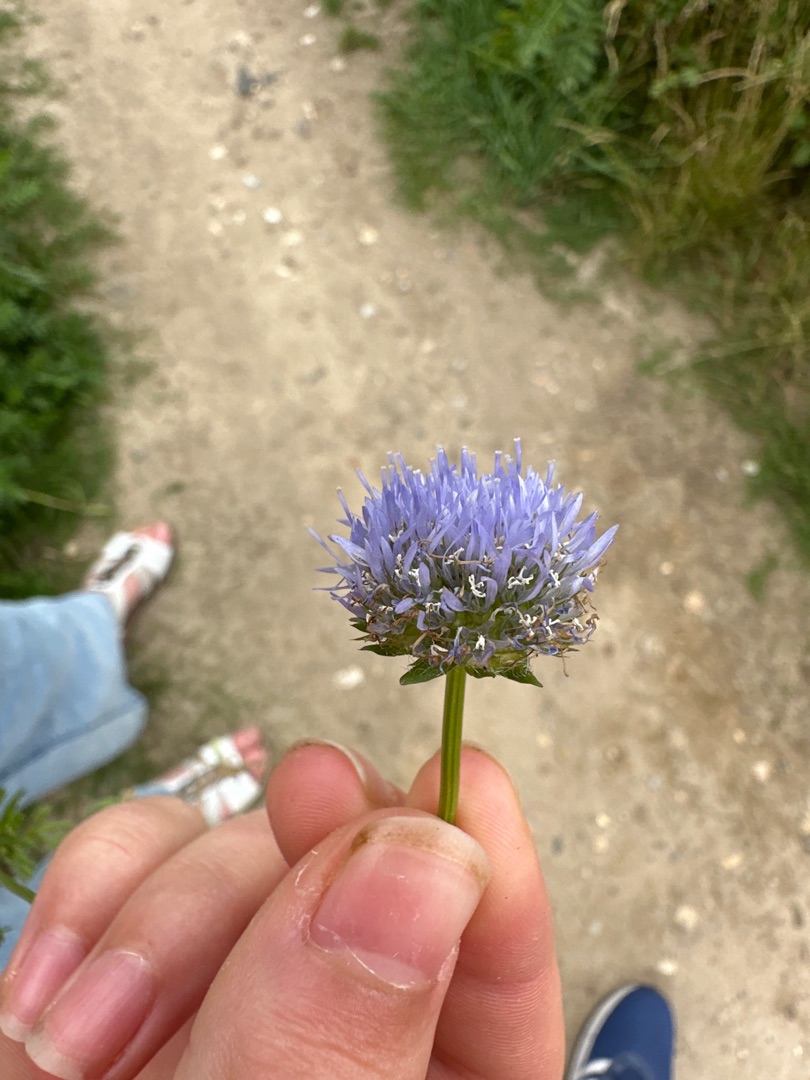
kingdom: Plantae
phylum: Tracheophyta
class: Magnoliopsida
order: Asterales
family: Campanulaceae
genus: Jasione
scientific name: Jasione montana
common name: Blåmunke
